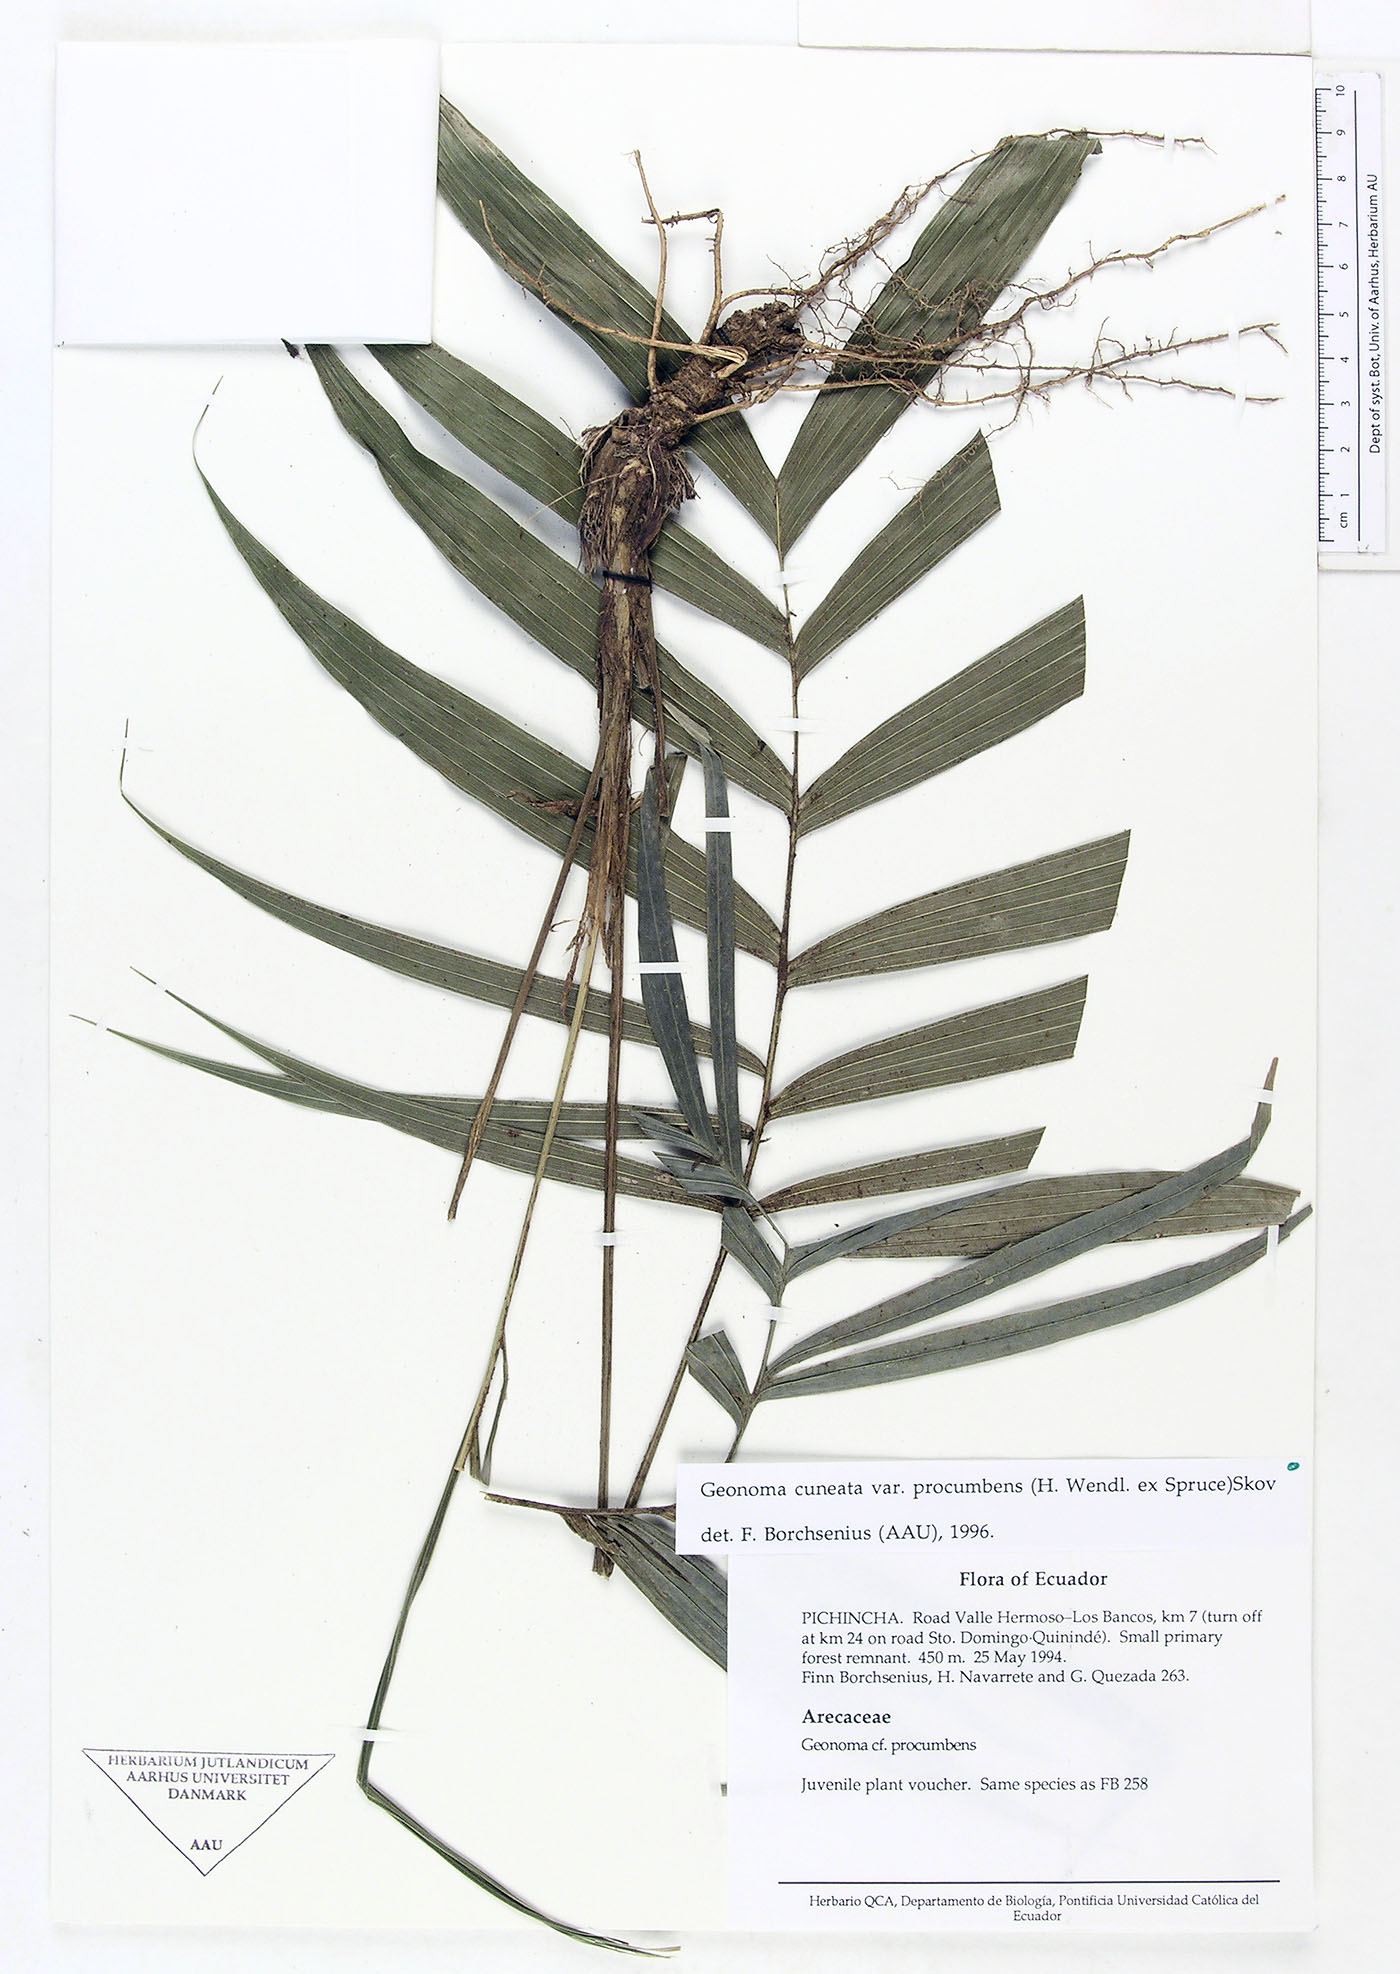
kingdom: Plantae
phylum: Tracheophyta
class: Liliopsida
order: Arecales
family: Arecaceae
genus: Geonoma
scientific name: Geonoma cuneata
